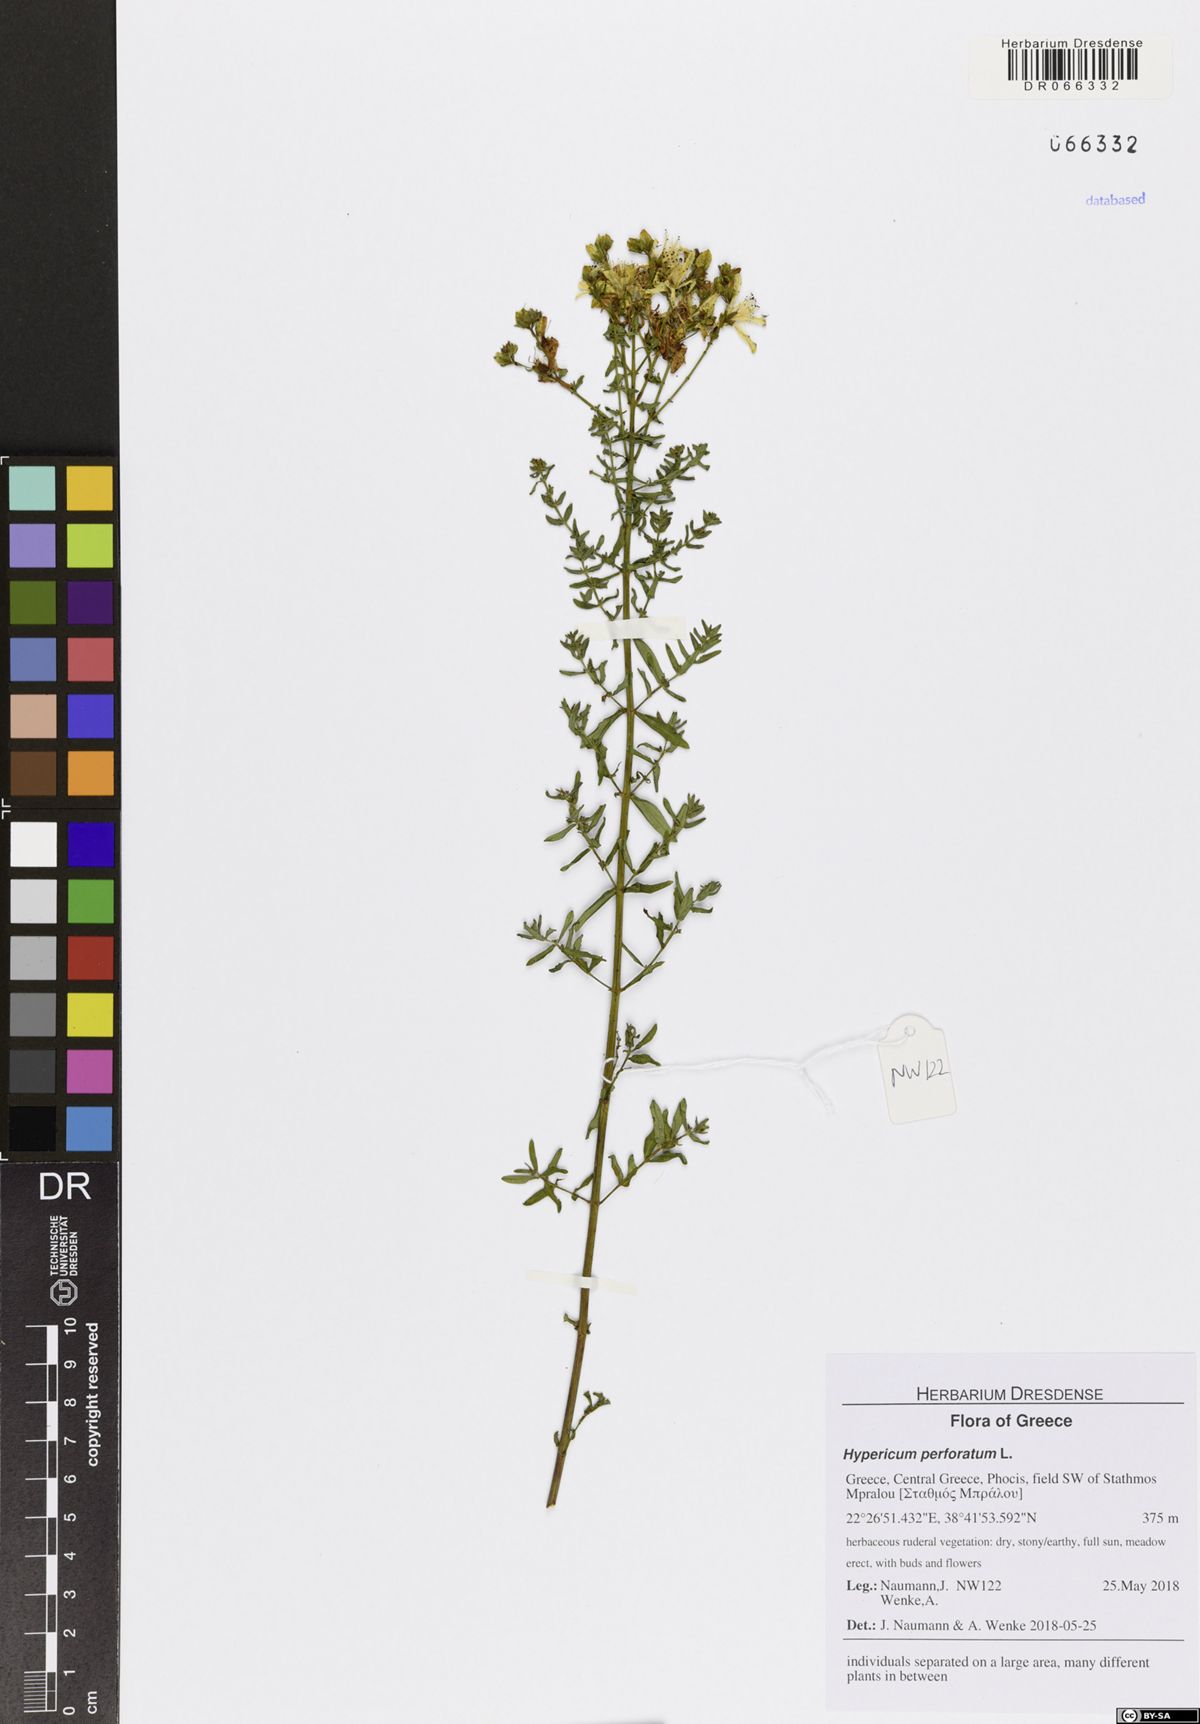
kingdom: Plantae
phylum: Tracheophyta
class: Magnoliopsida
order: Malpighiales
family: Hypericaceae
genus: Hypericum
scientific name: Hypericum perforatum
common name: Common st. johnswort
